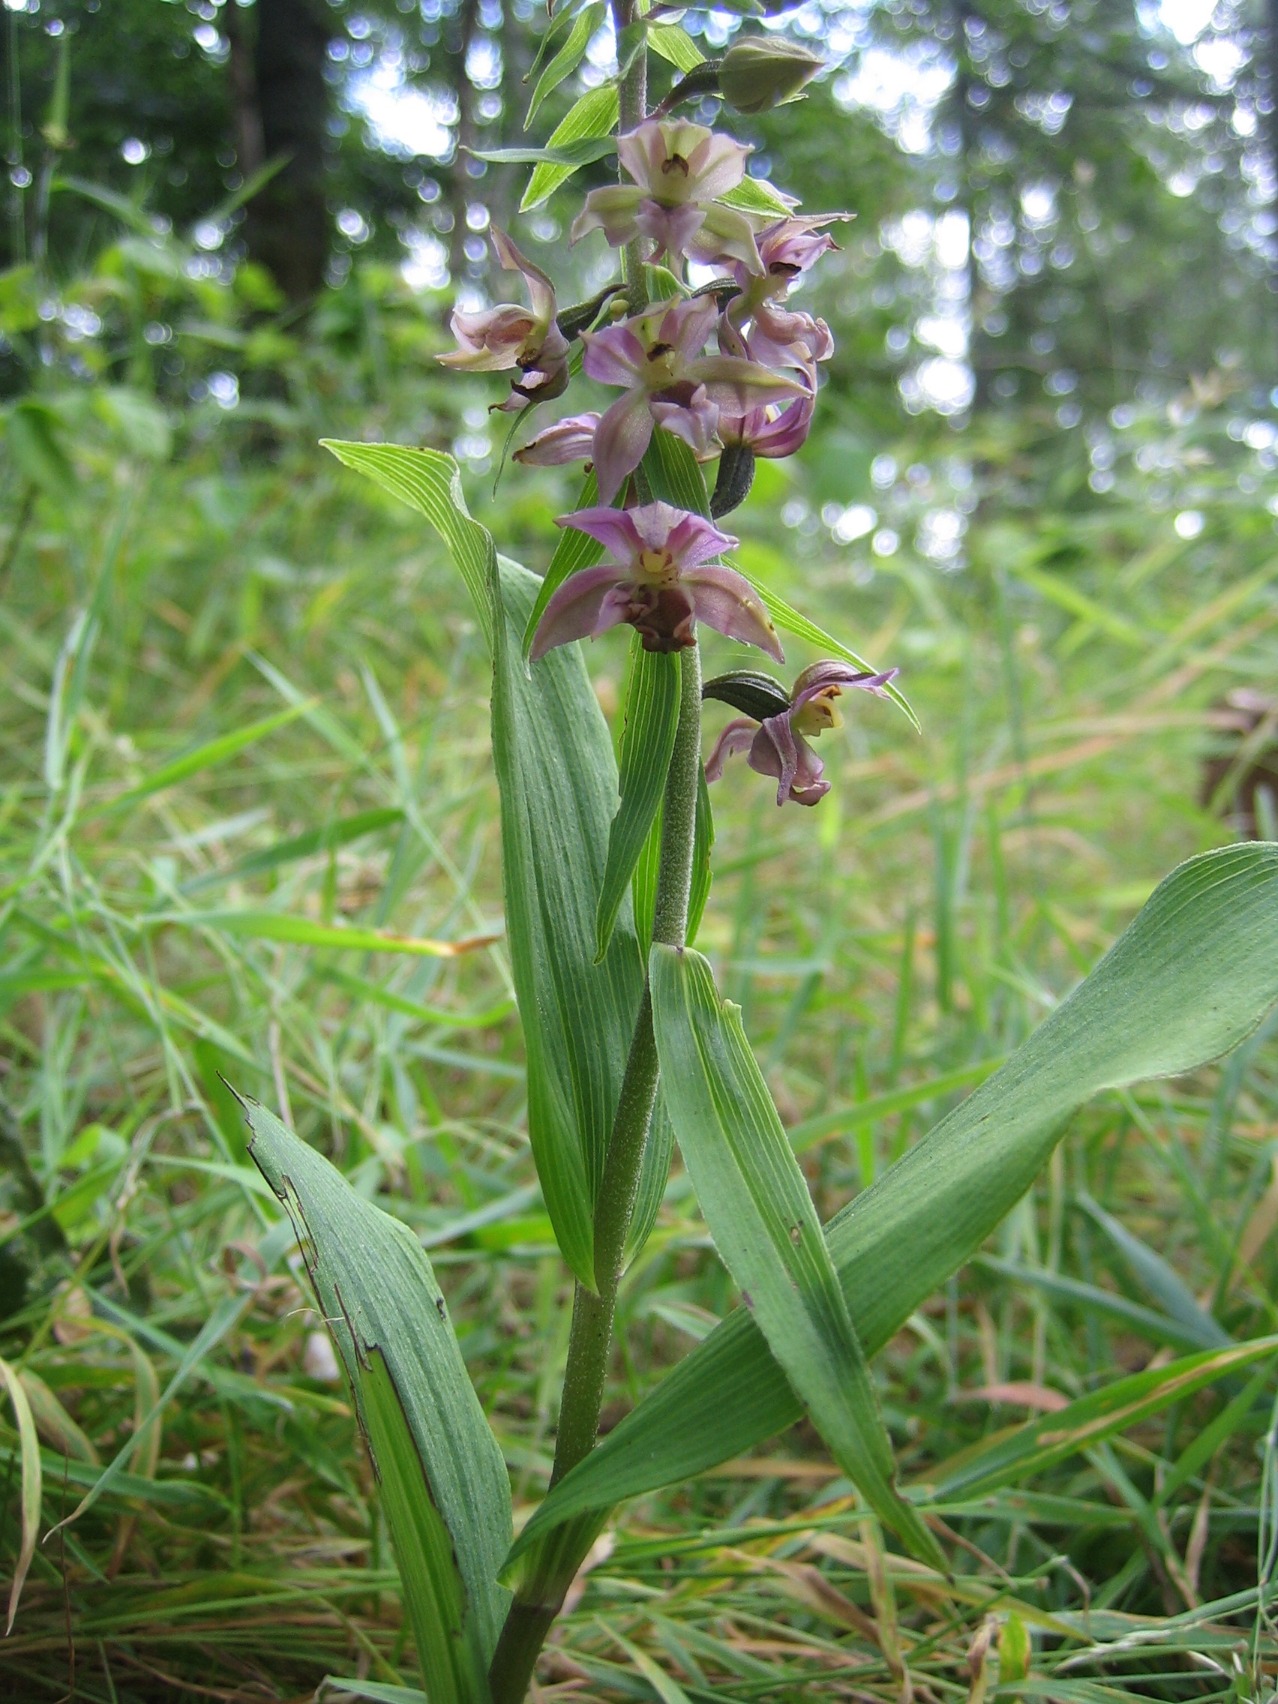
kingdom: Plantae
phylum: Tracheophyta
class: Liliopsida
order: Asparagales
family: Orchidaceae
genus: Epipactis
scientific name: Epipactis helleborine
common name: Skov-hullæbe
